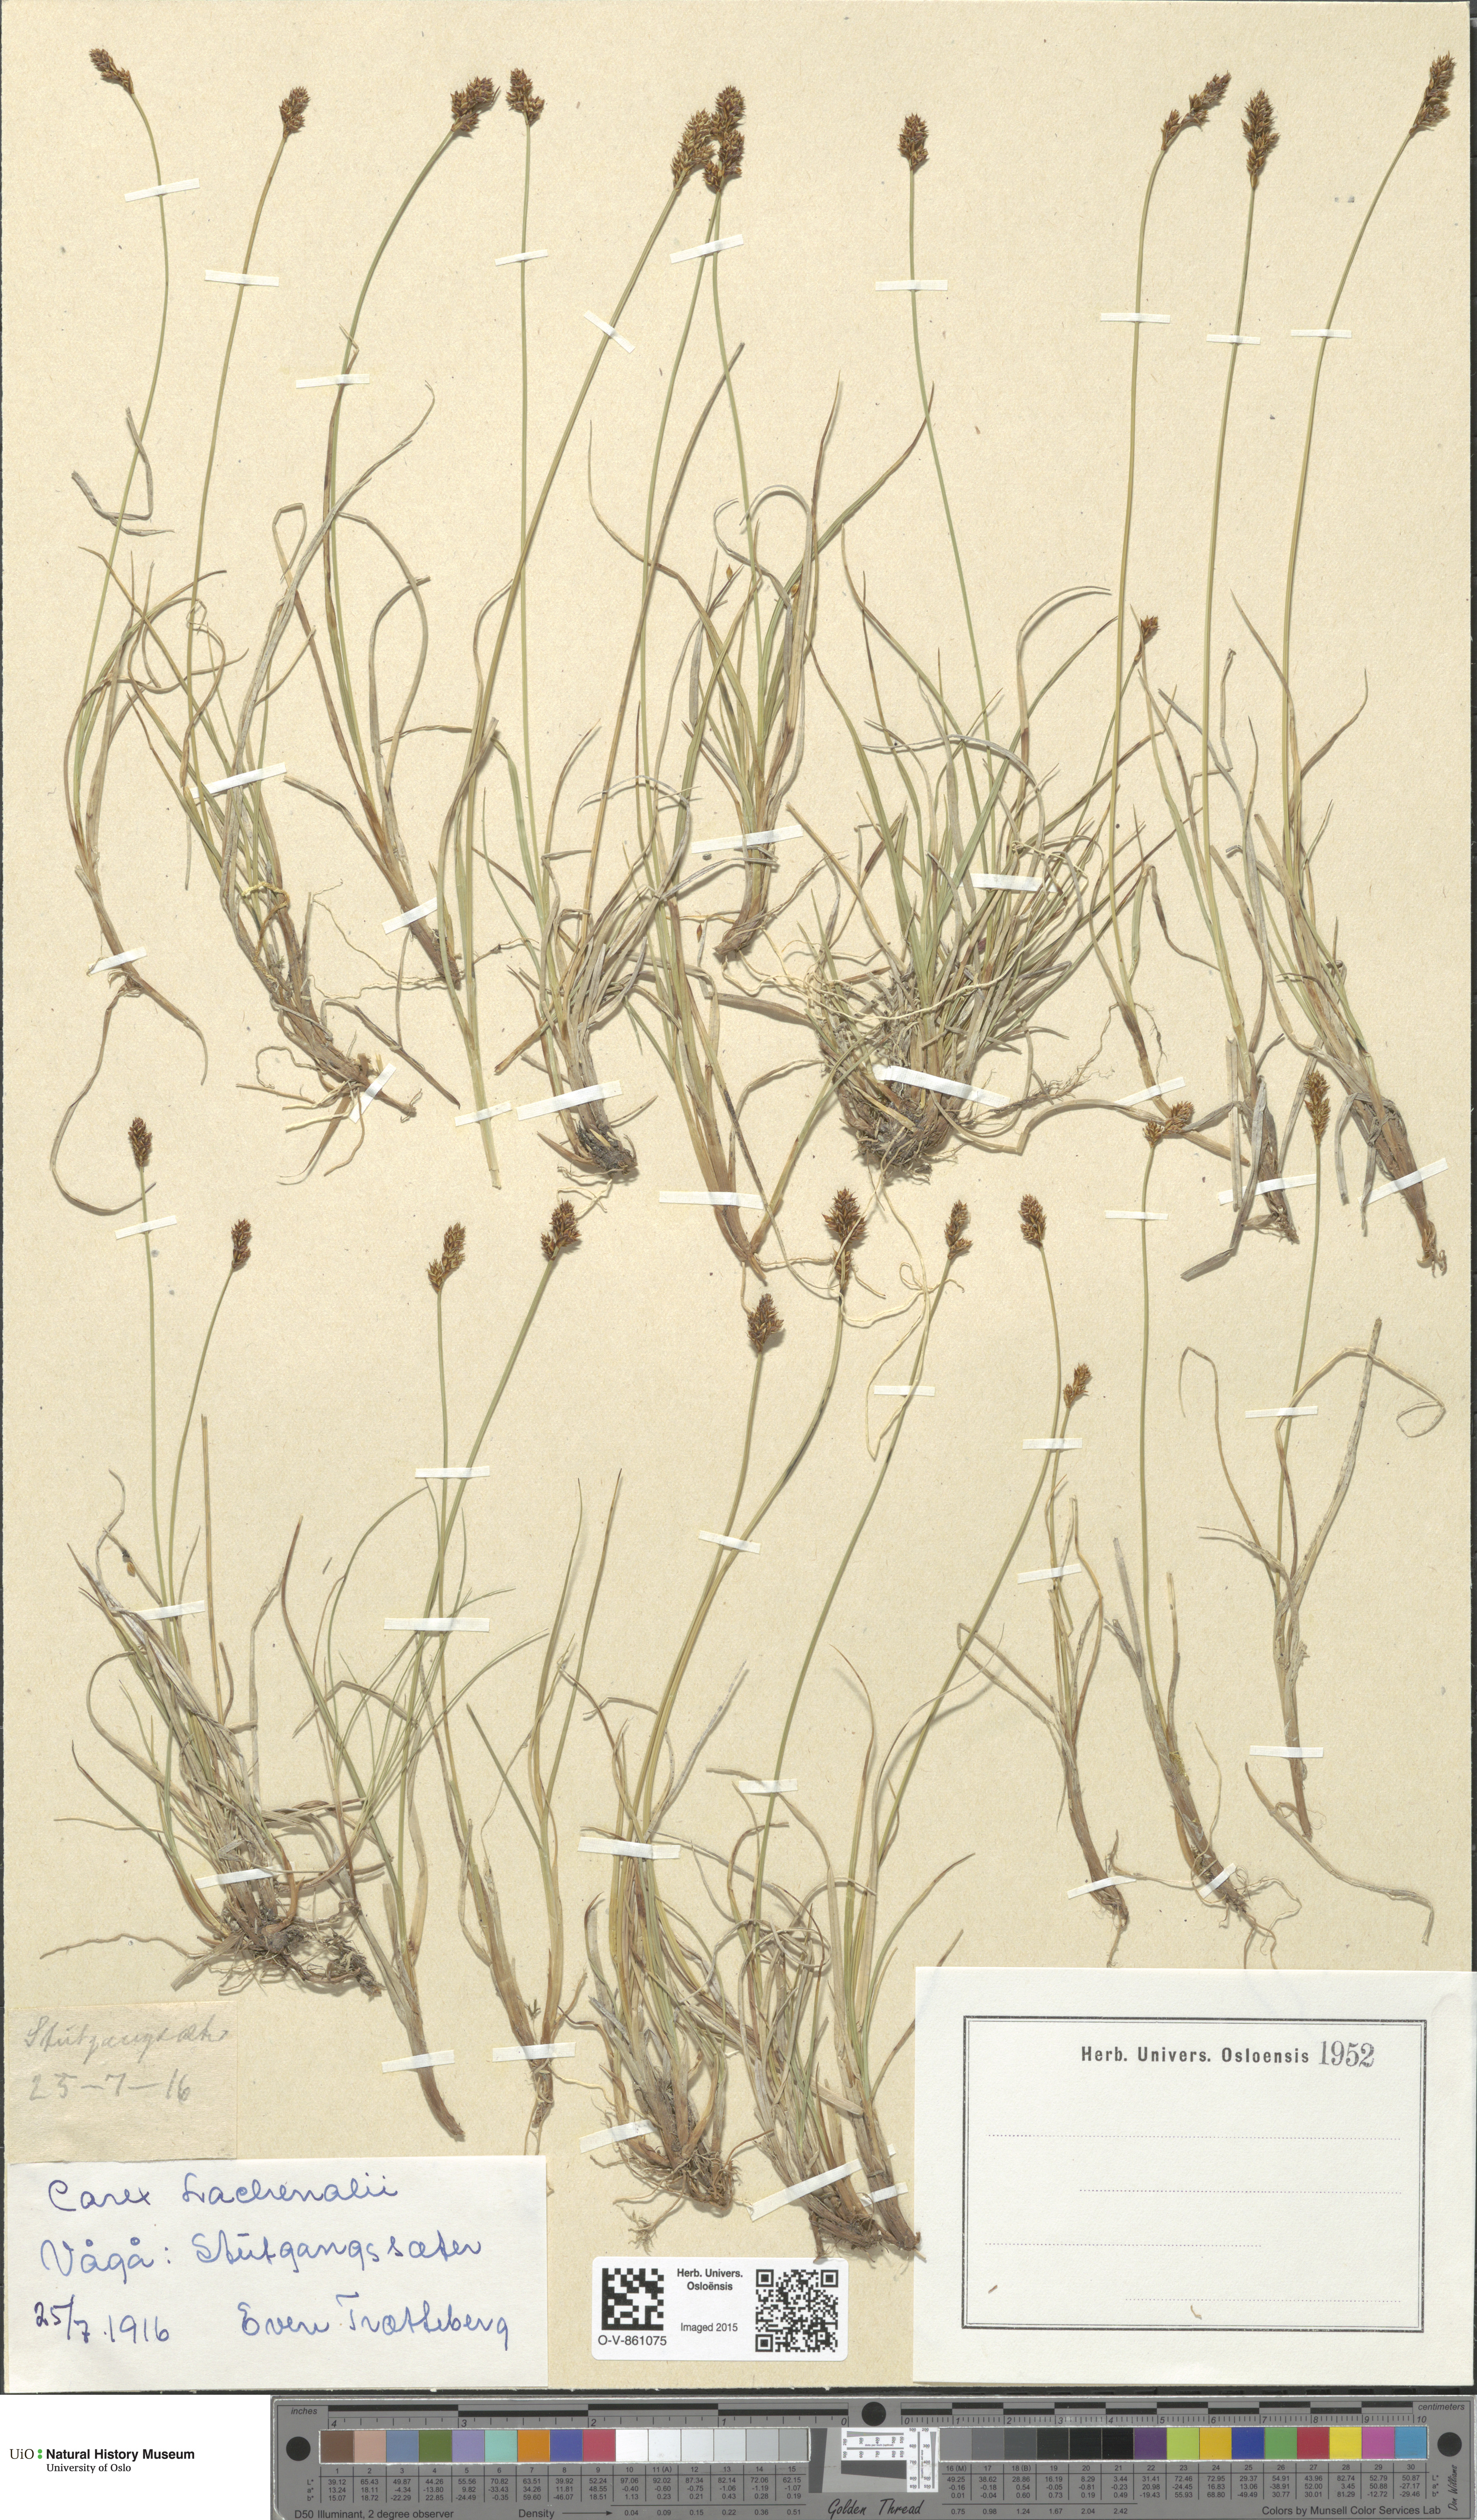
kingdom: Plantae
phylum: Tracheophyta
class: Liliopsida
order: Poales
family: Cyperaceae
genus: Carex
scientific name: Carex lachenalii
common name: Hare's-foot sedge
